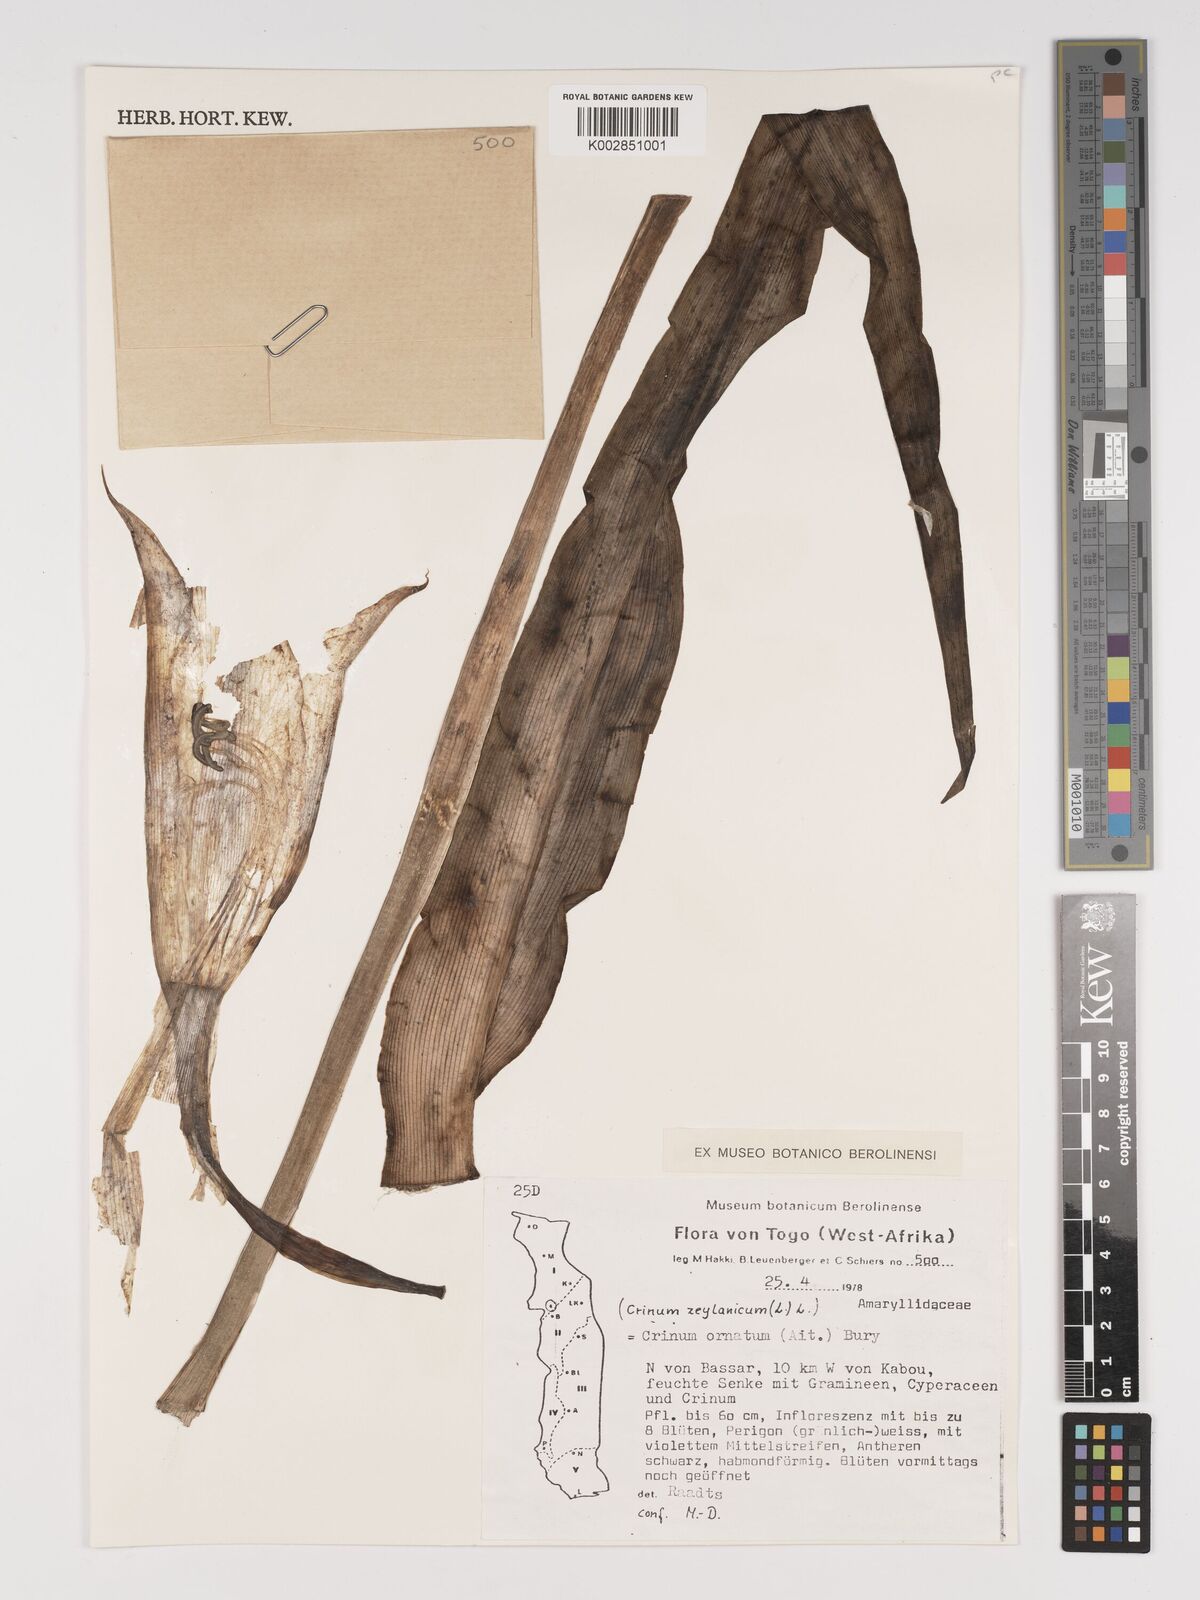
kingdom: Plantae
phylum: Tracheophyta
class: Liliopsida
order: Asparagales
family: Amaryllidaceae
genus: Crinum
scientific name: Crinum ornatum
